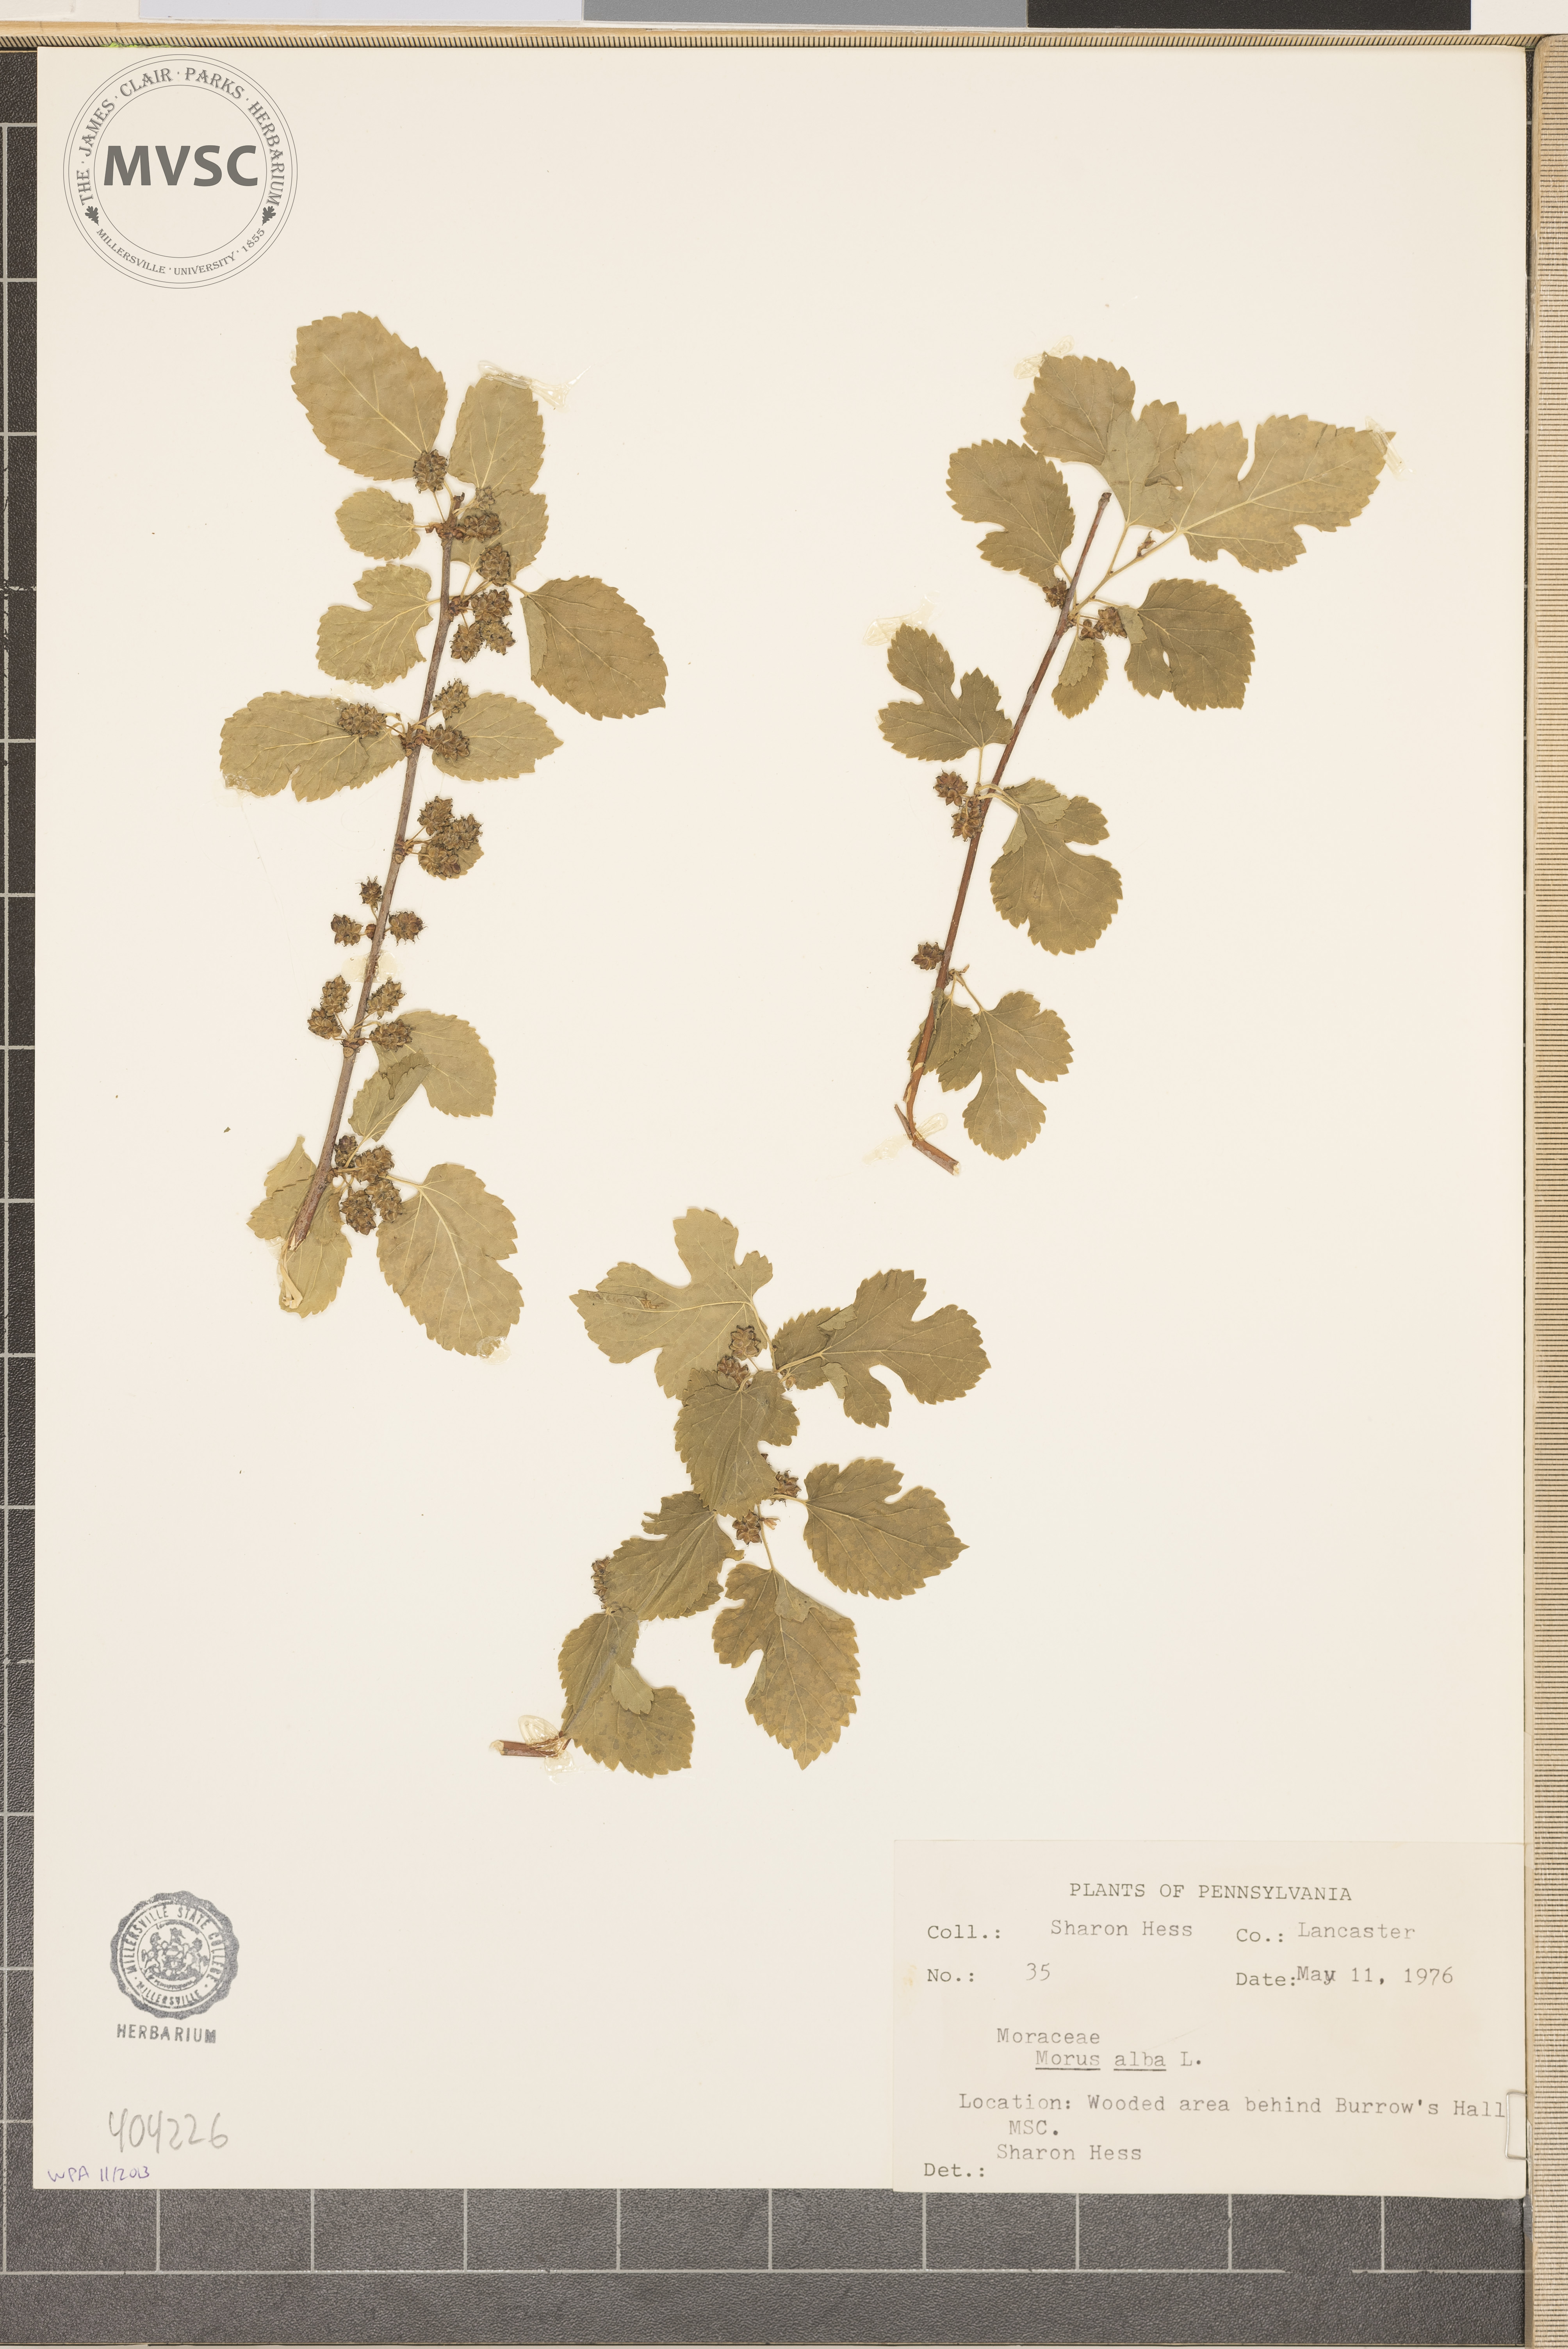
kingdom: Plantae
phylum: Tracheophyta
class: Magnoliopsida
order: Rosales
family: Moraceae
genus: Morus
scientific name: Morus alba
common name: White mulberry
